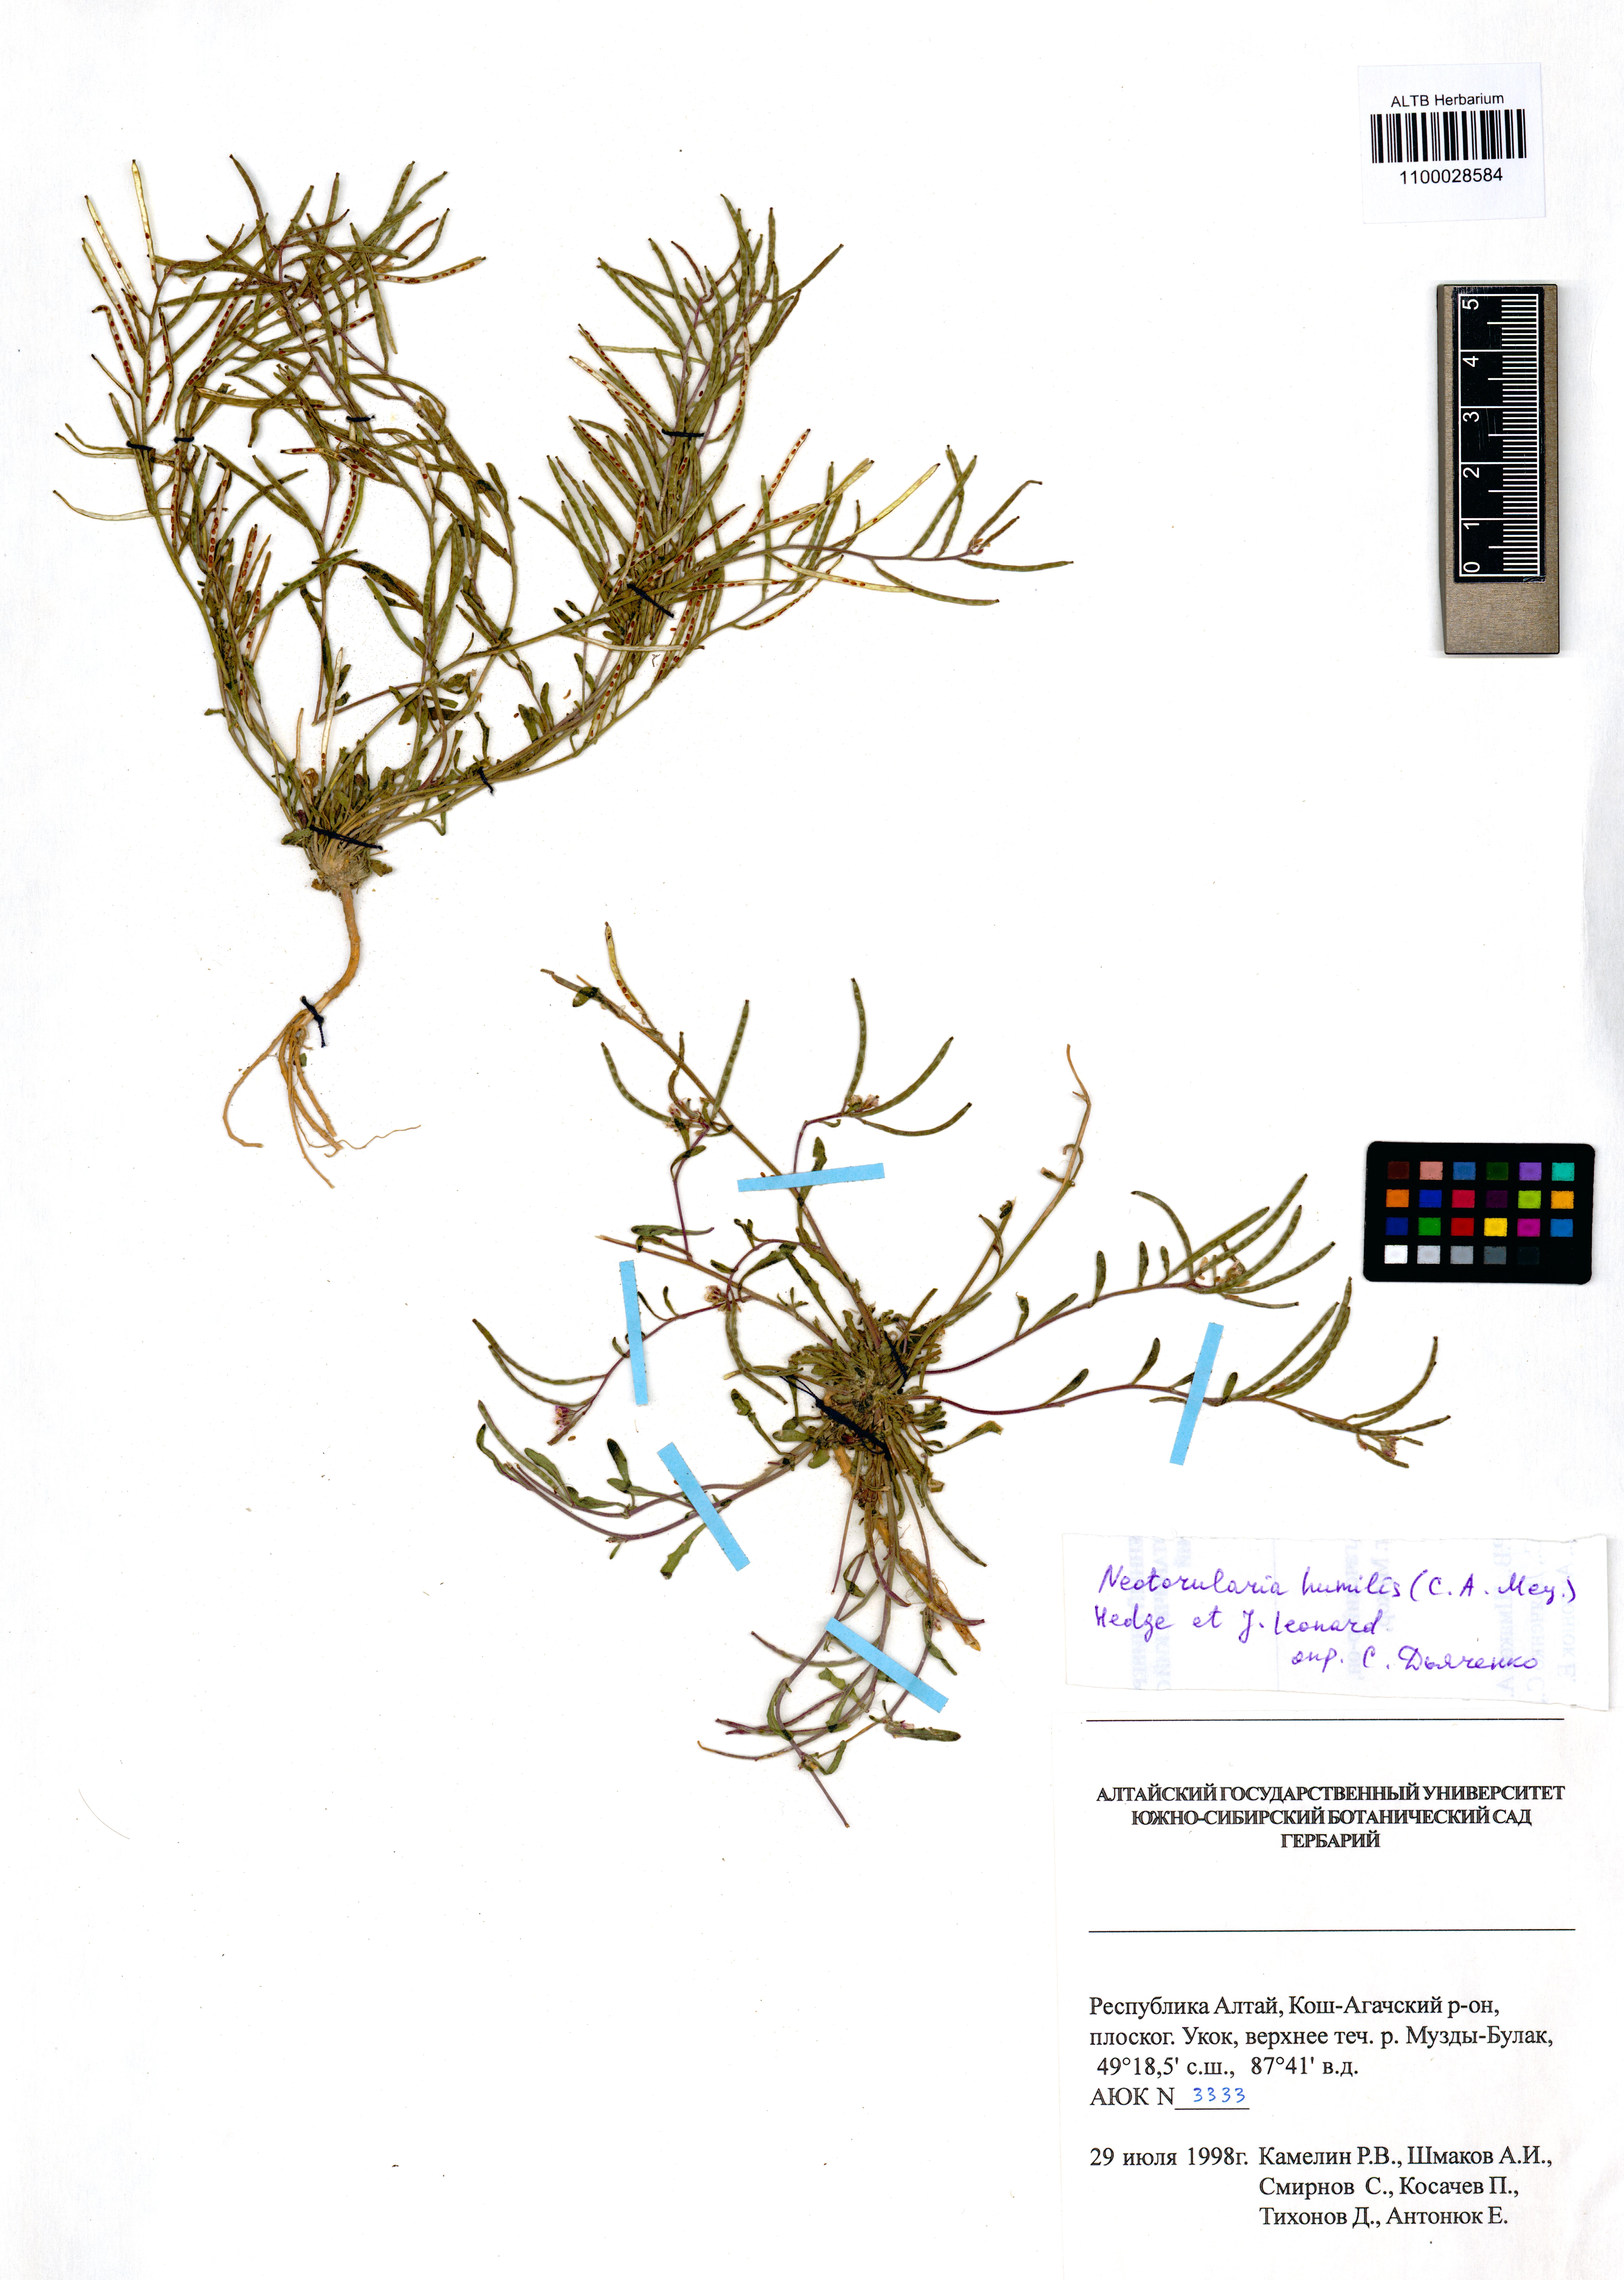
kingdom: Plantae
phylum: Tracheophyta
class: Magnoliopsida
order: Brassicales
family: Brassicaceae
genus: Braya
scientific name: Braya humilis
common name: Alpine northern rockcress
